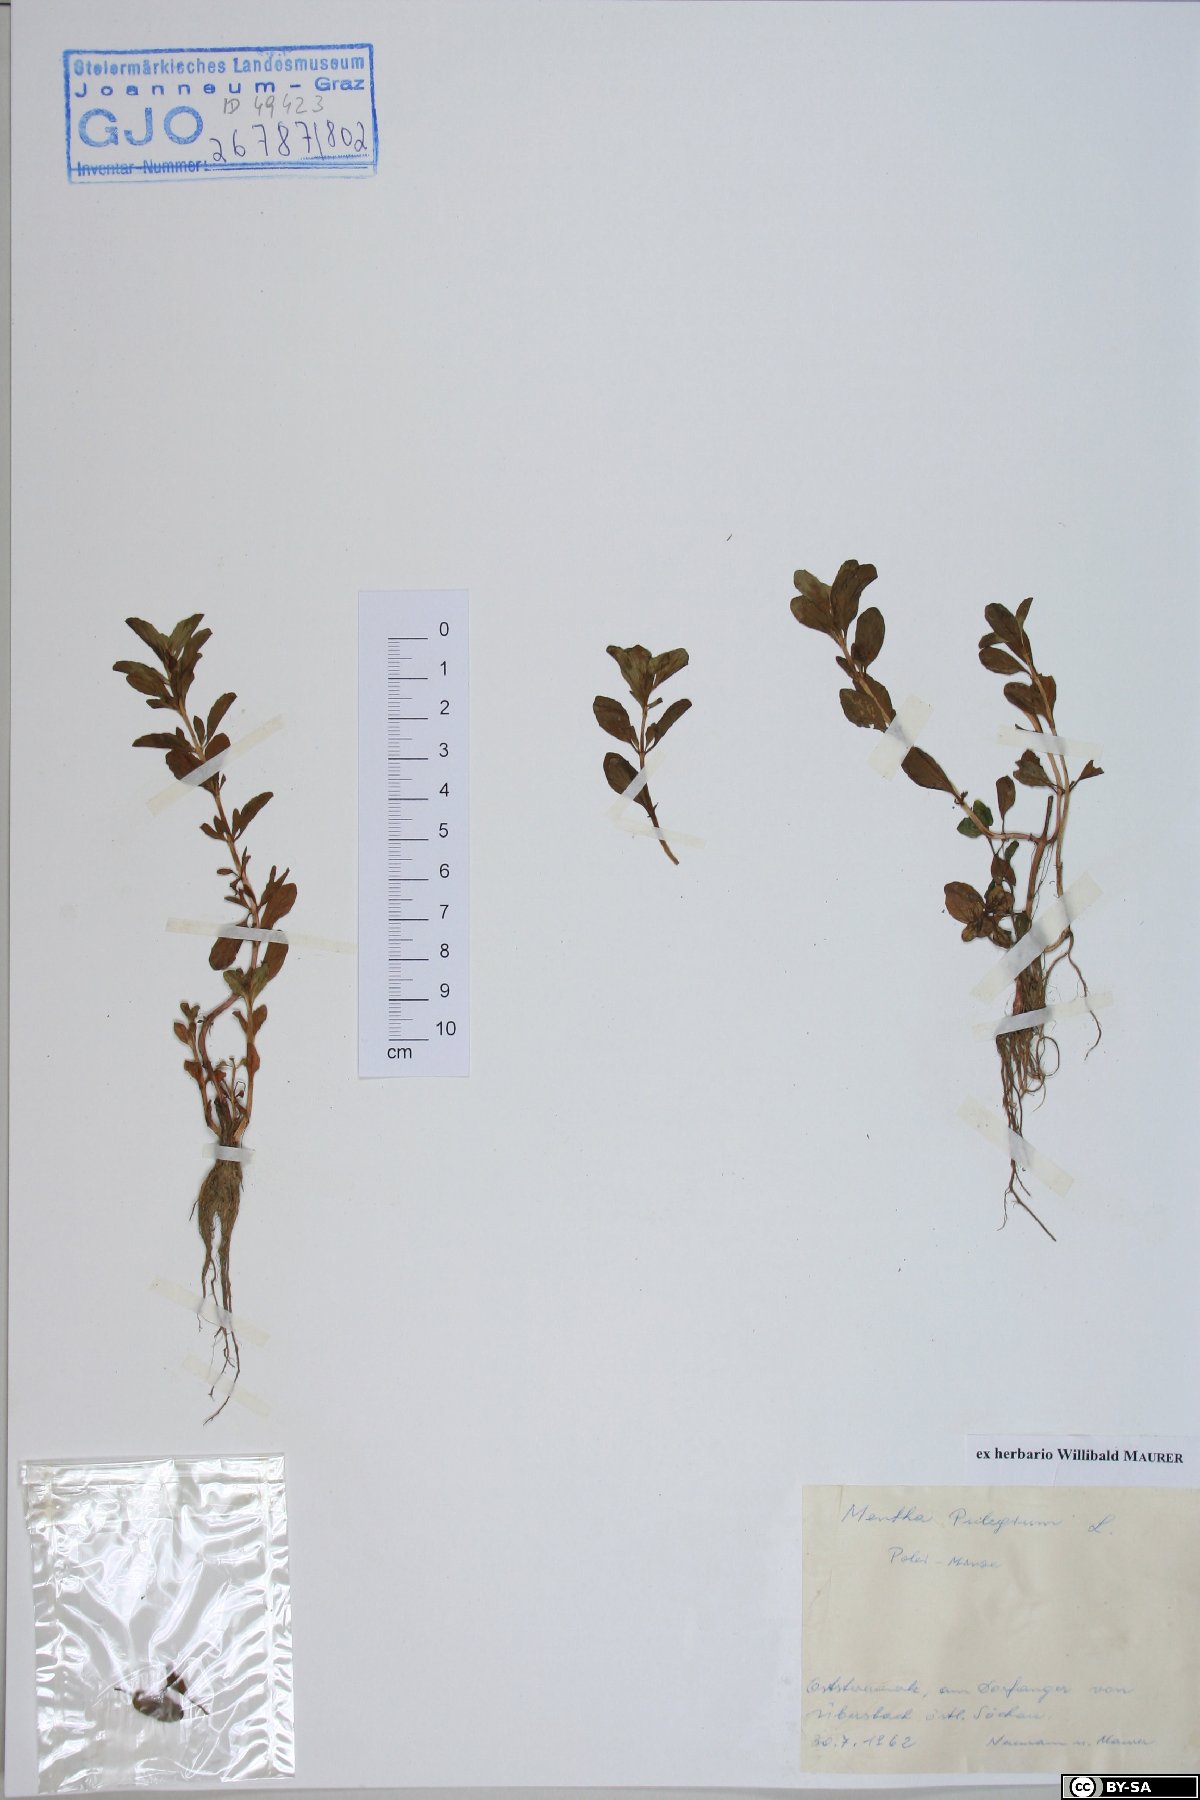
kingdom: Plantae
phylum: Tracheophyta
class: Magnoliopsida
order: Lamiales
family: Lamiaceae
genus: Mentha
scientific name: Mentha pulegium
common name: Pennyroyal
